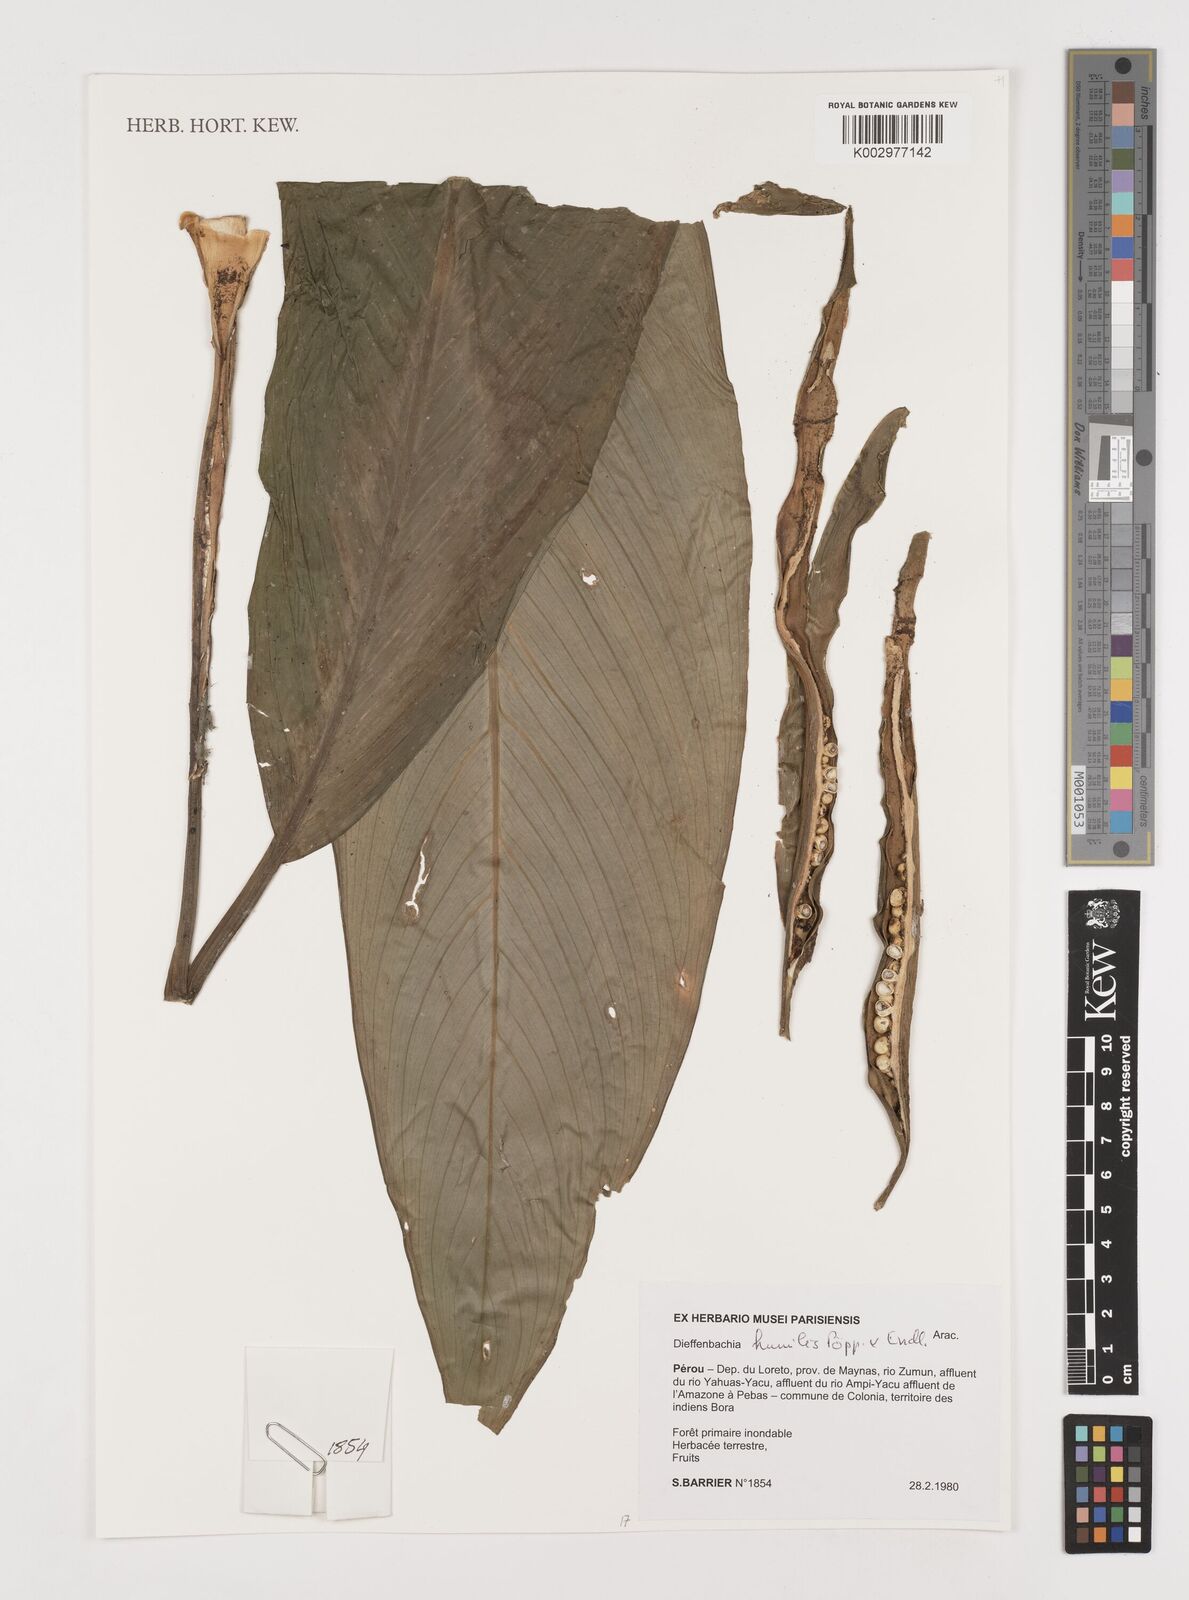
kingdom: Plantae
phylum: Tracheophyta
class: Liliopsida
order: Alismatales
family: Araceae
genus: Dieffenbachia
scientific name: Dieffenbachia humilis
